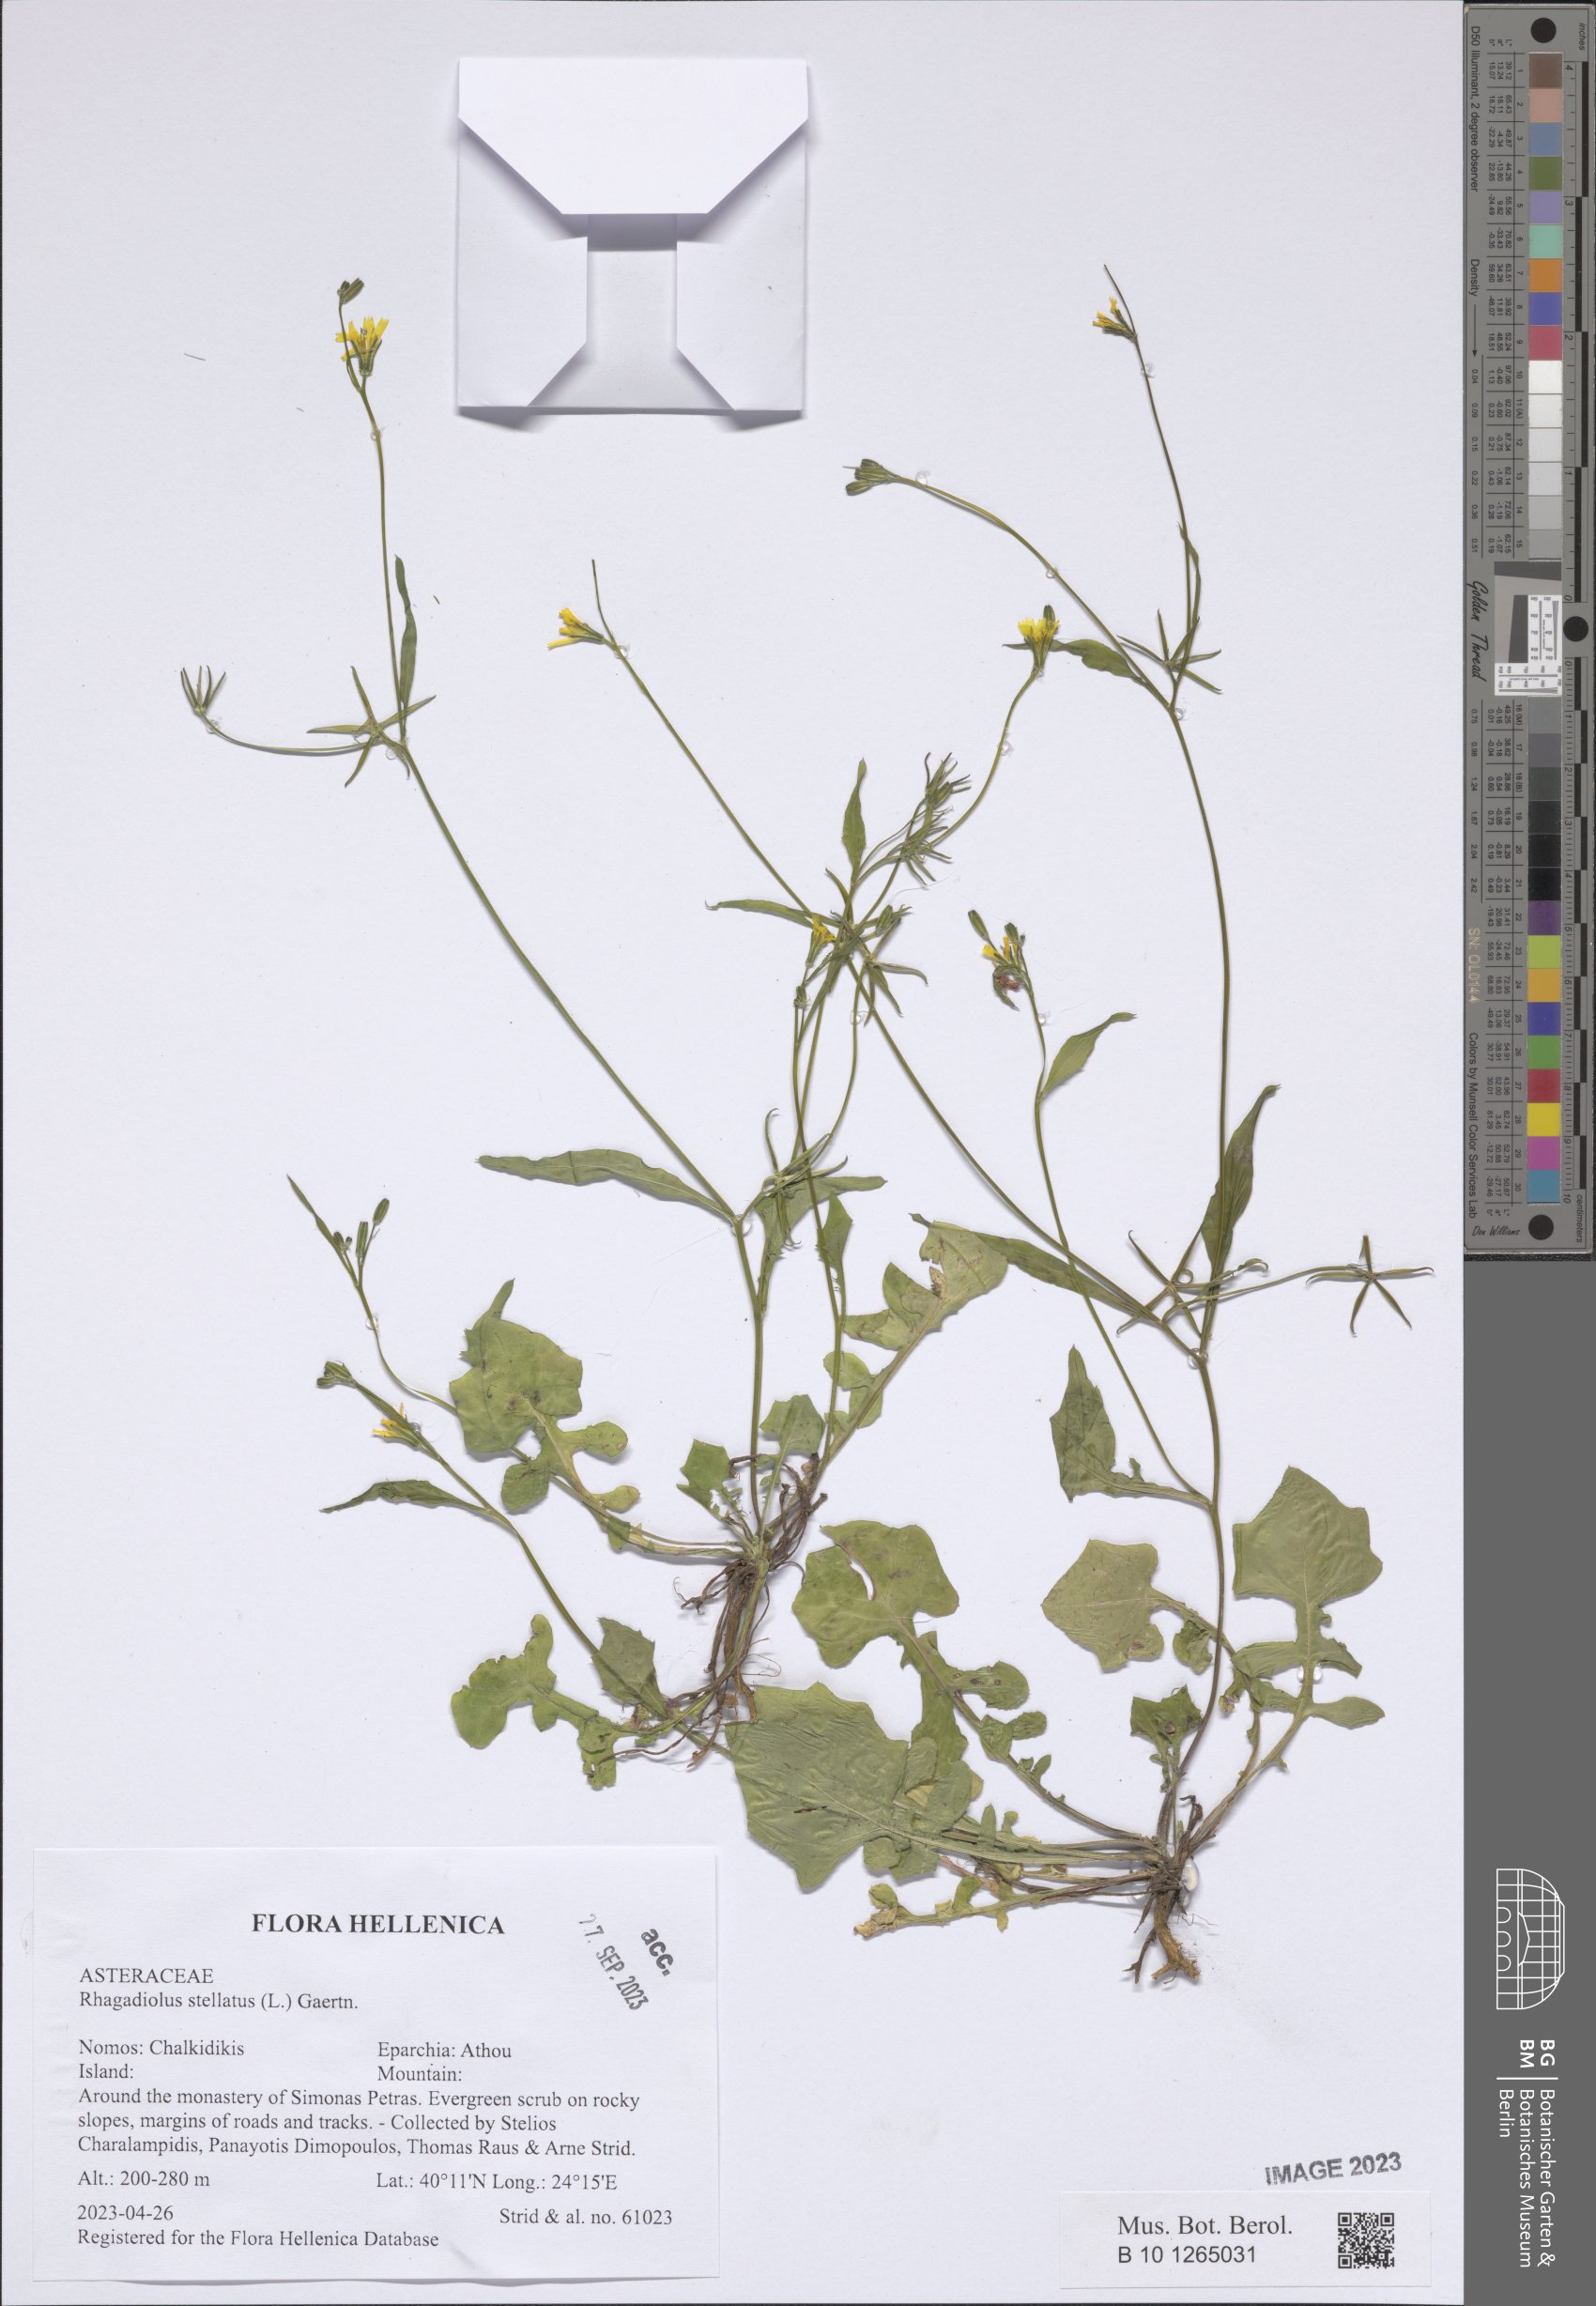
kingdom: Plantae
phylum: Tracheophyta
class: Magnoliopsida
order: Asterales
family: Asteraceae
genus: Rhagadiolus
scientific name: Rhagadiolus stellatus
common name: Star hawkbit
